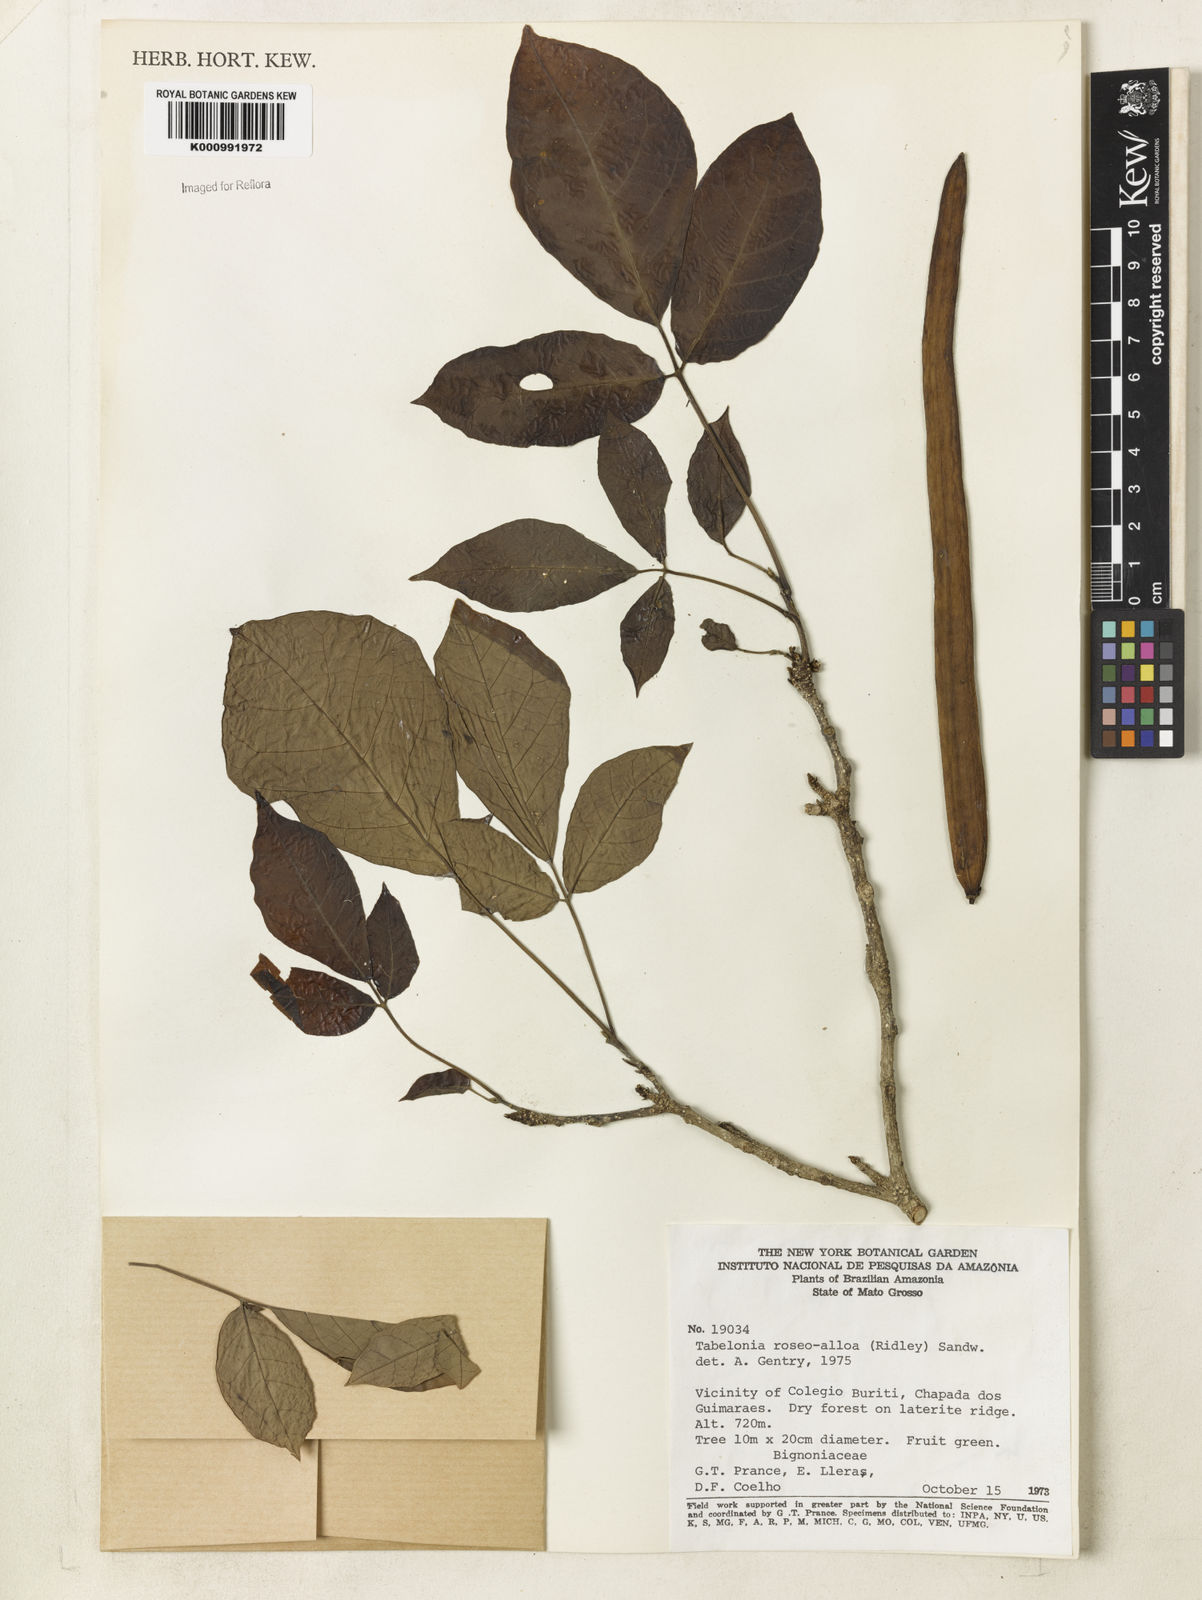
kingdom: Plantae
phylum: Tracheophyta
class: Magnoliopsida
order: Lamiales
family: Bignoniaceae
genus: Tabebuia
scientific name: Tabebuia roseoalba
